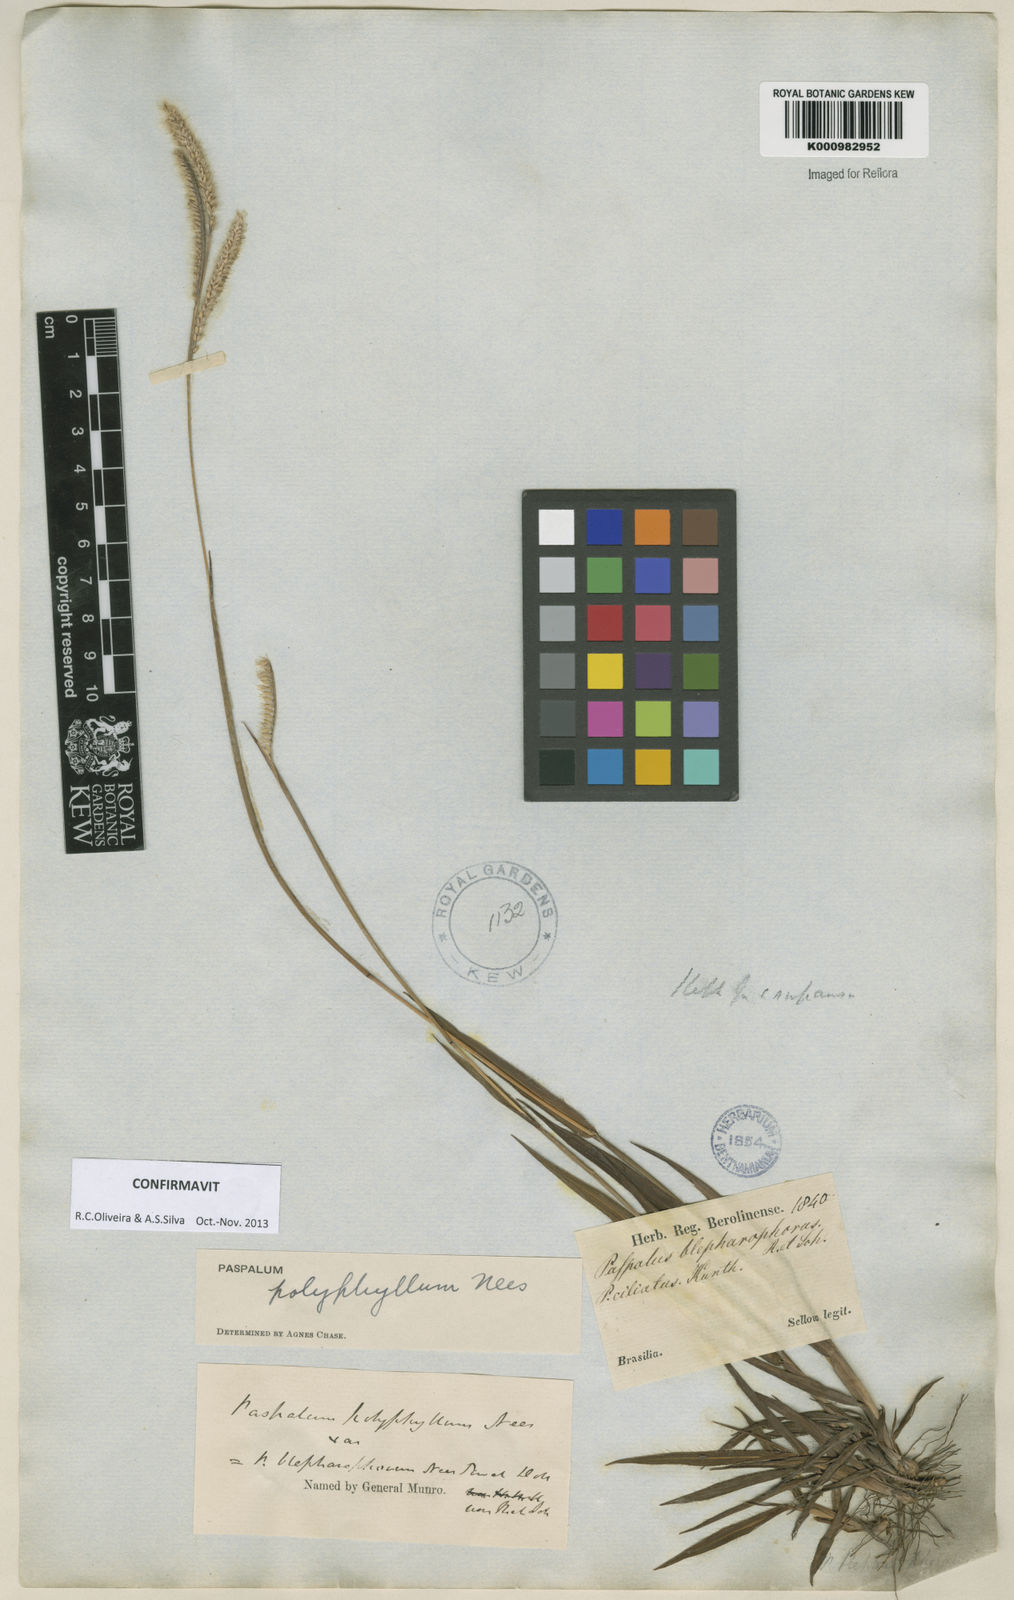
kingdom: Plantae
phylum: Tracheophyta
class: Liliopsida
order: Poales
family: Poaceae
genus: Paspalum
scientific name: Paspalum
